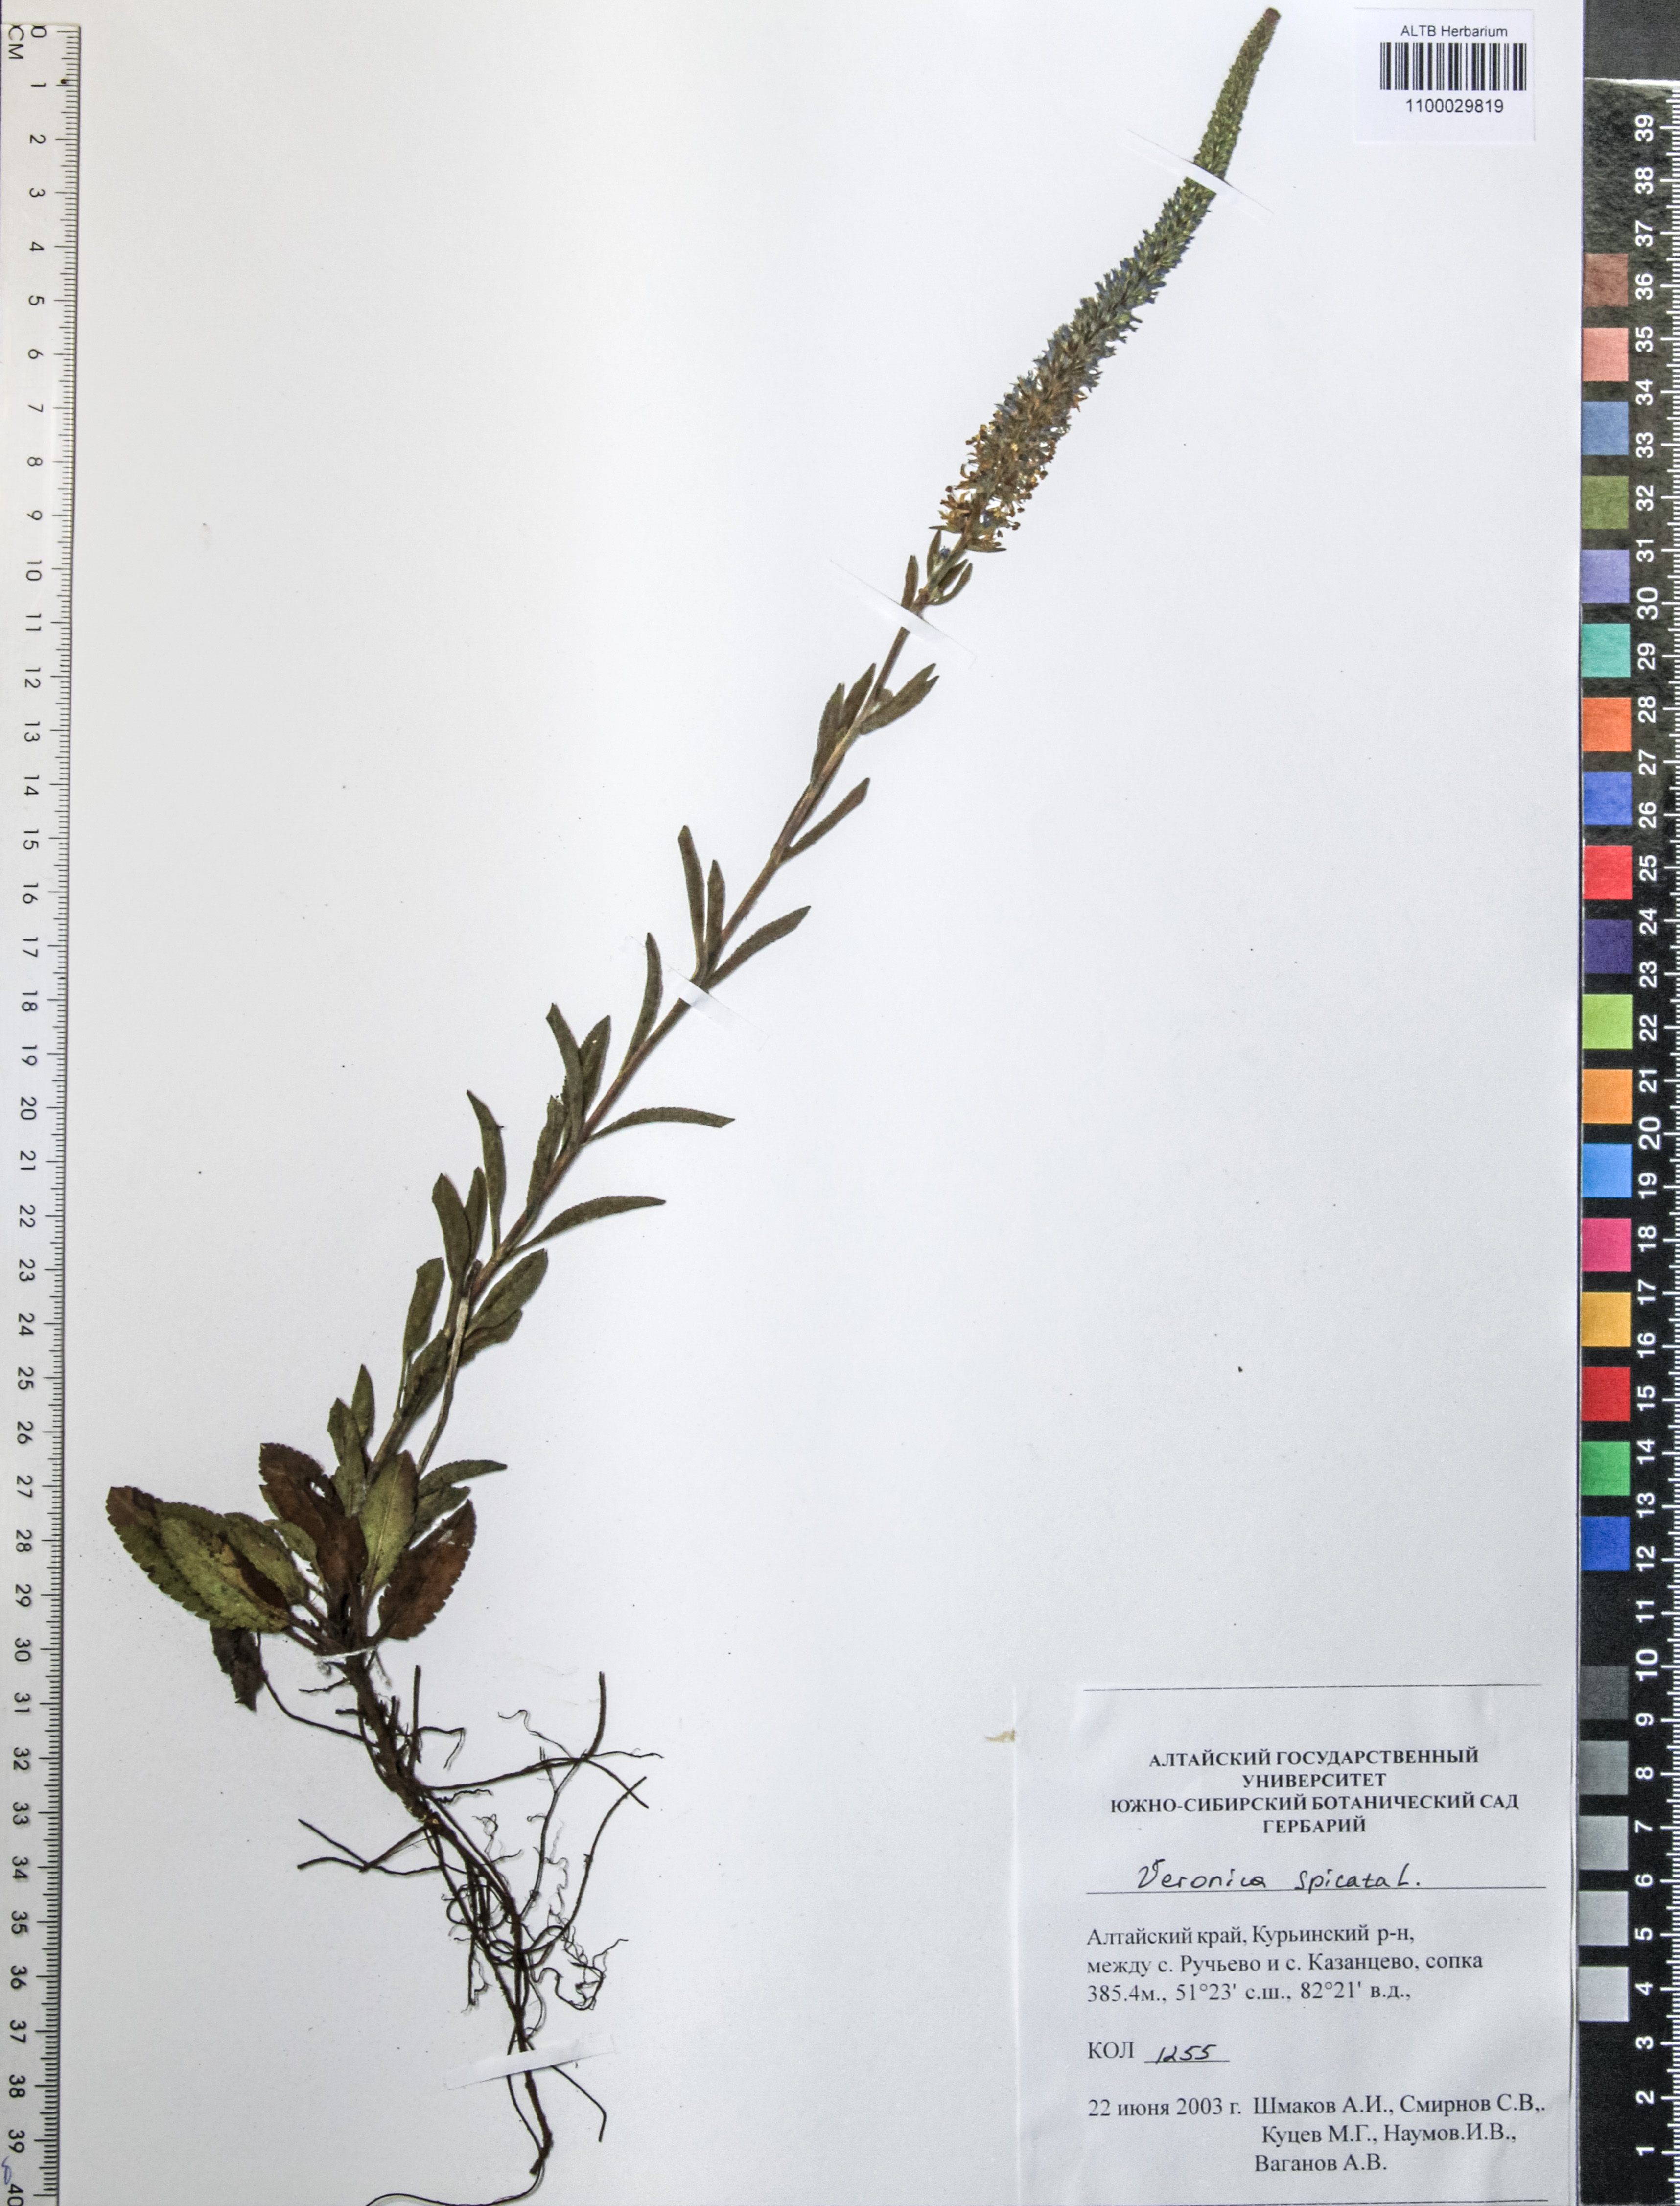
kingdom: Plantae
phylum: Tracheophyta
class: Magnoliopsida
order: Lamiales
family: Plantaginaceae
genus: Veronica
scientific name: Veronica spicata
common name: Spiked speedwell
